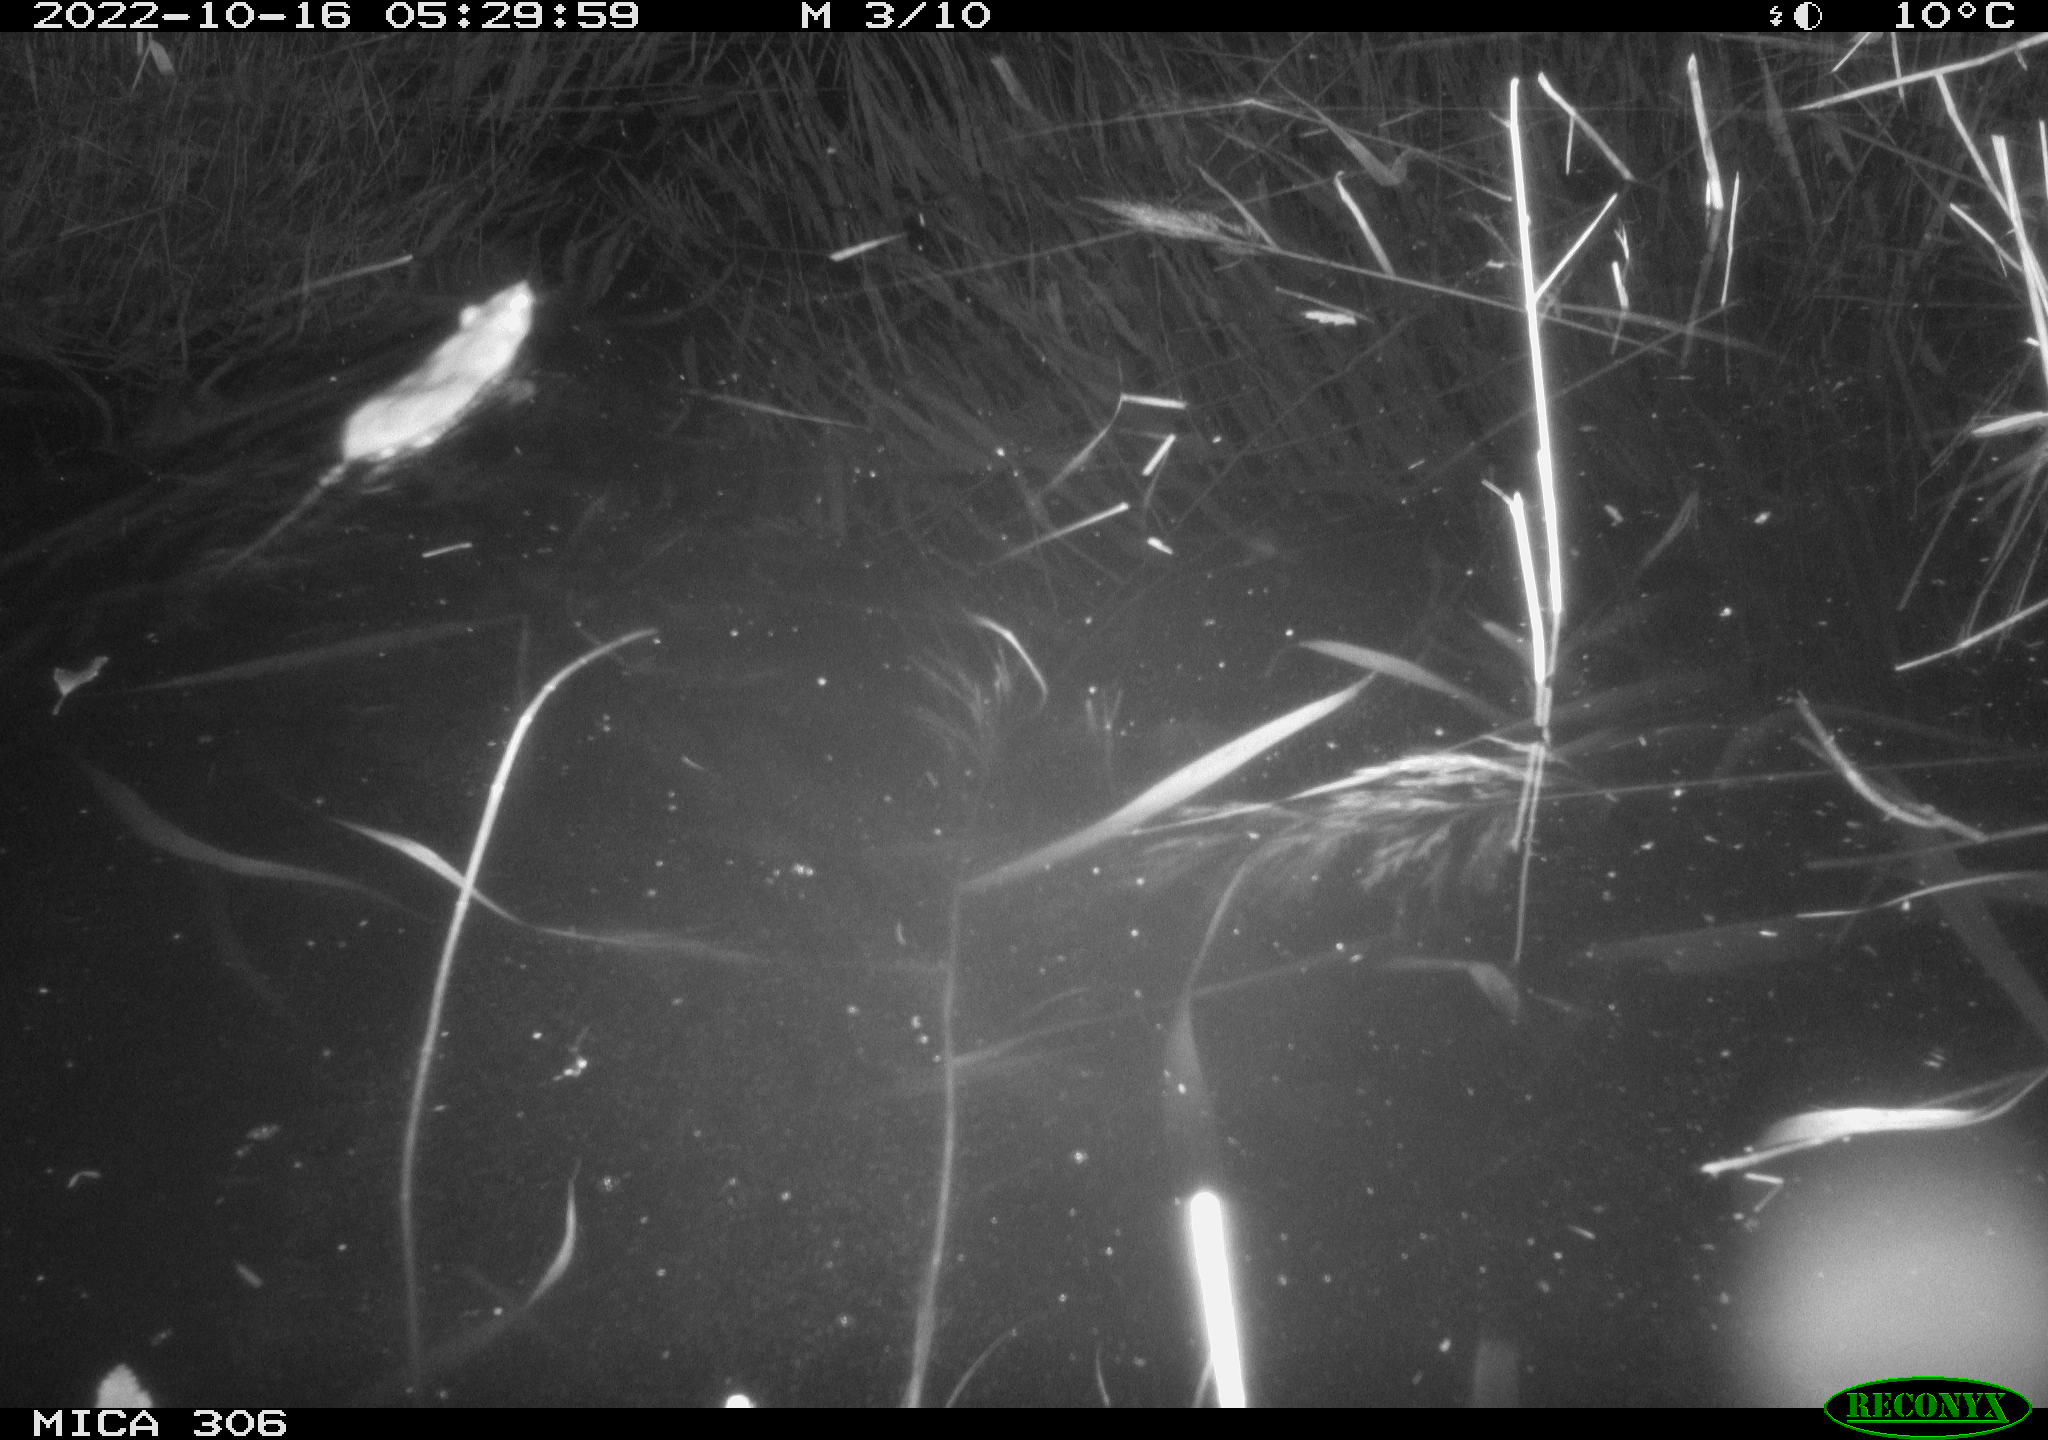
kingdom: Animalia
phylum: Chordata
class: Mammalia
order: Rodentia
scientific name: Rodentia
